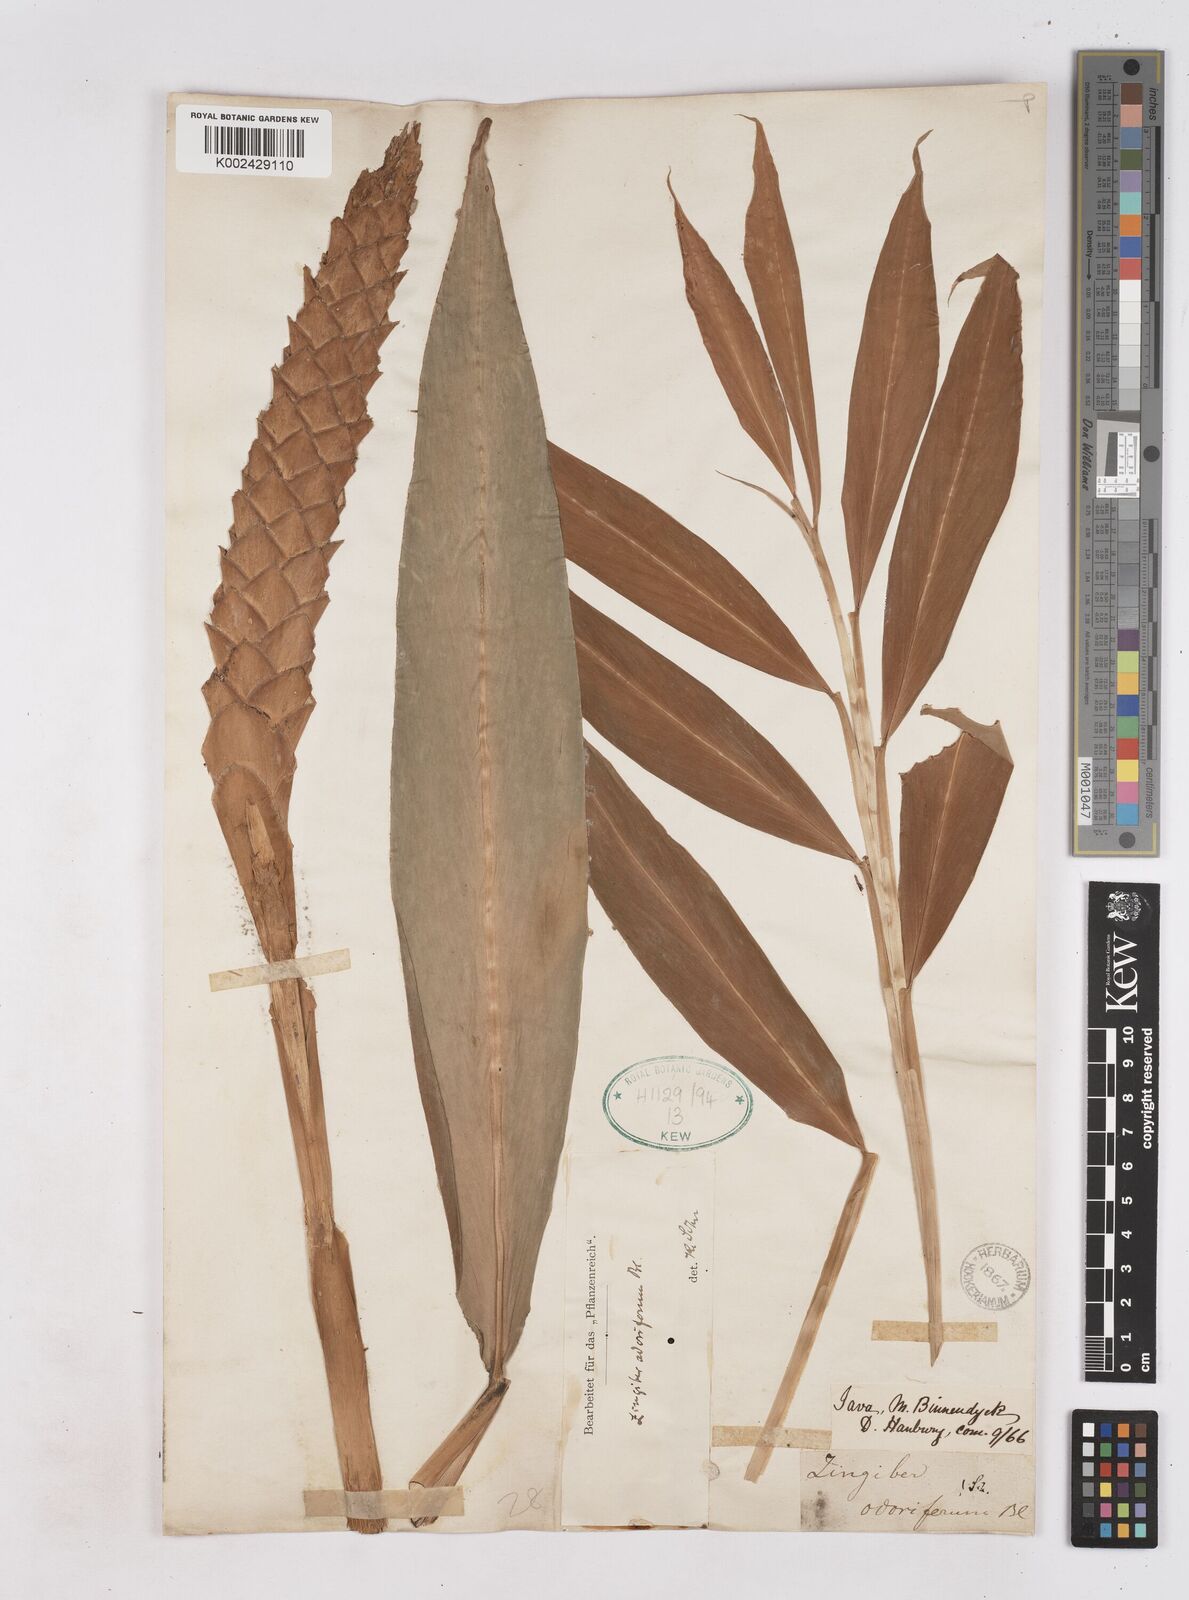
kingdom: Plantae
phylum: Tracheophyta
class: Liliopsida
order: Zingiberales
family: Zingiberaceae
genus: Zingiber
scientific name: Zingiber odoriferum
